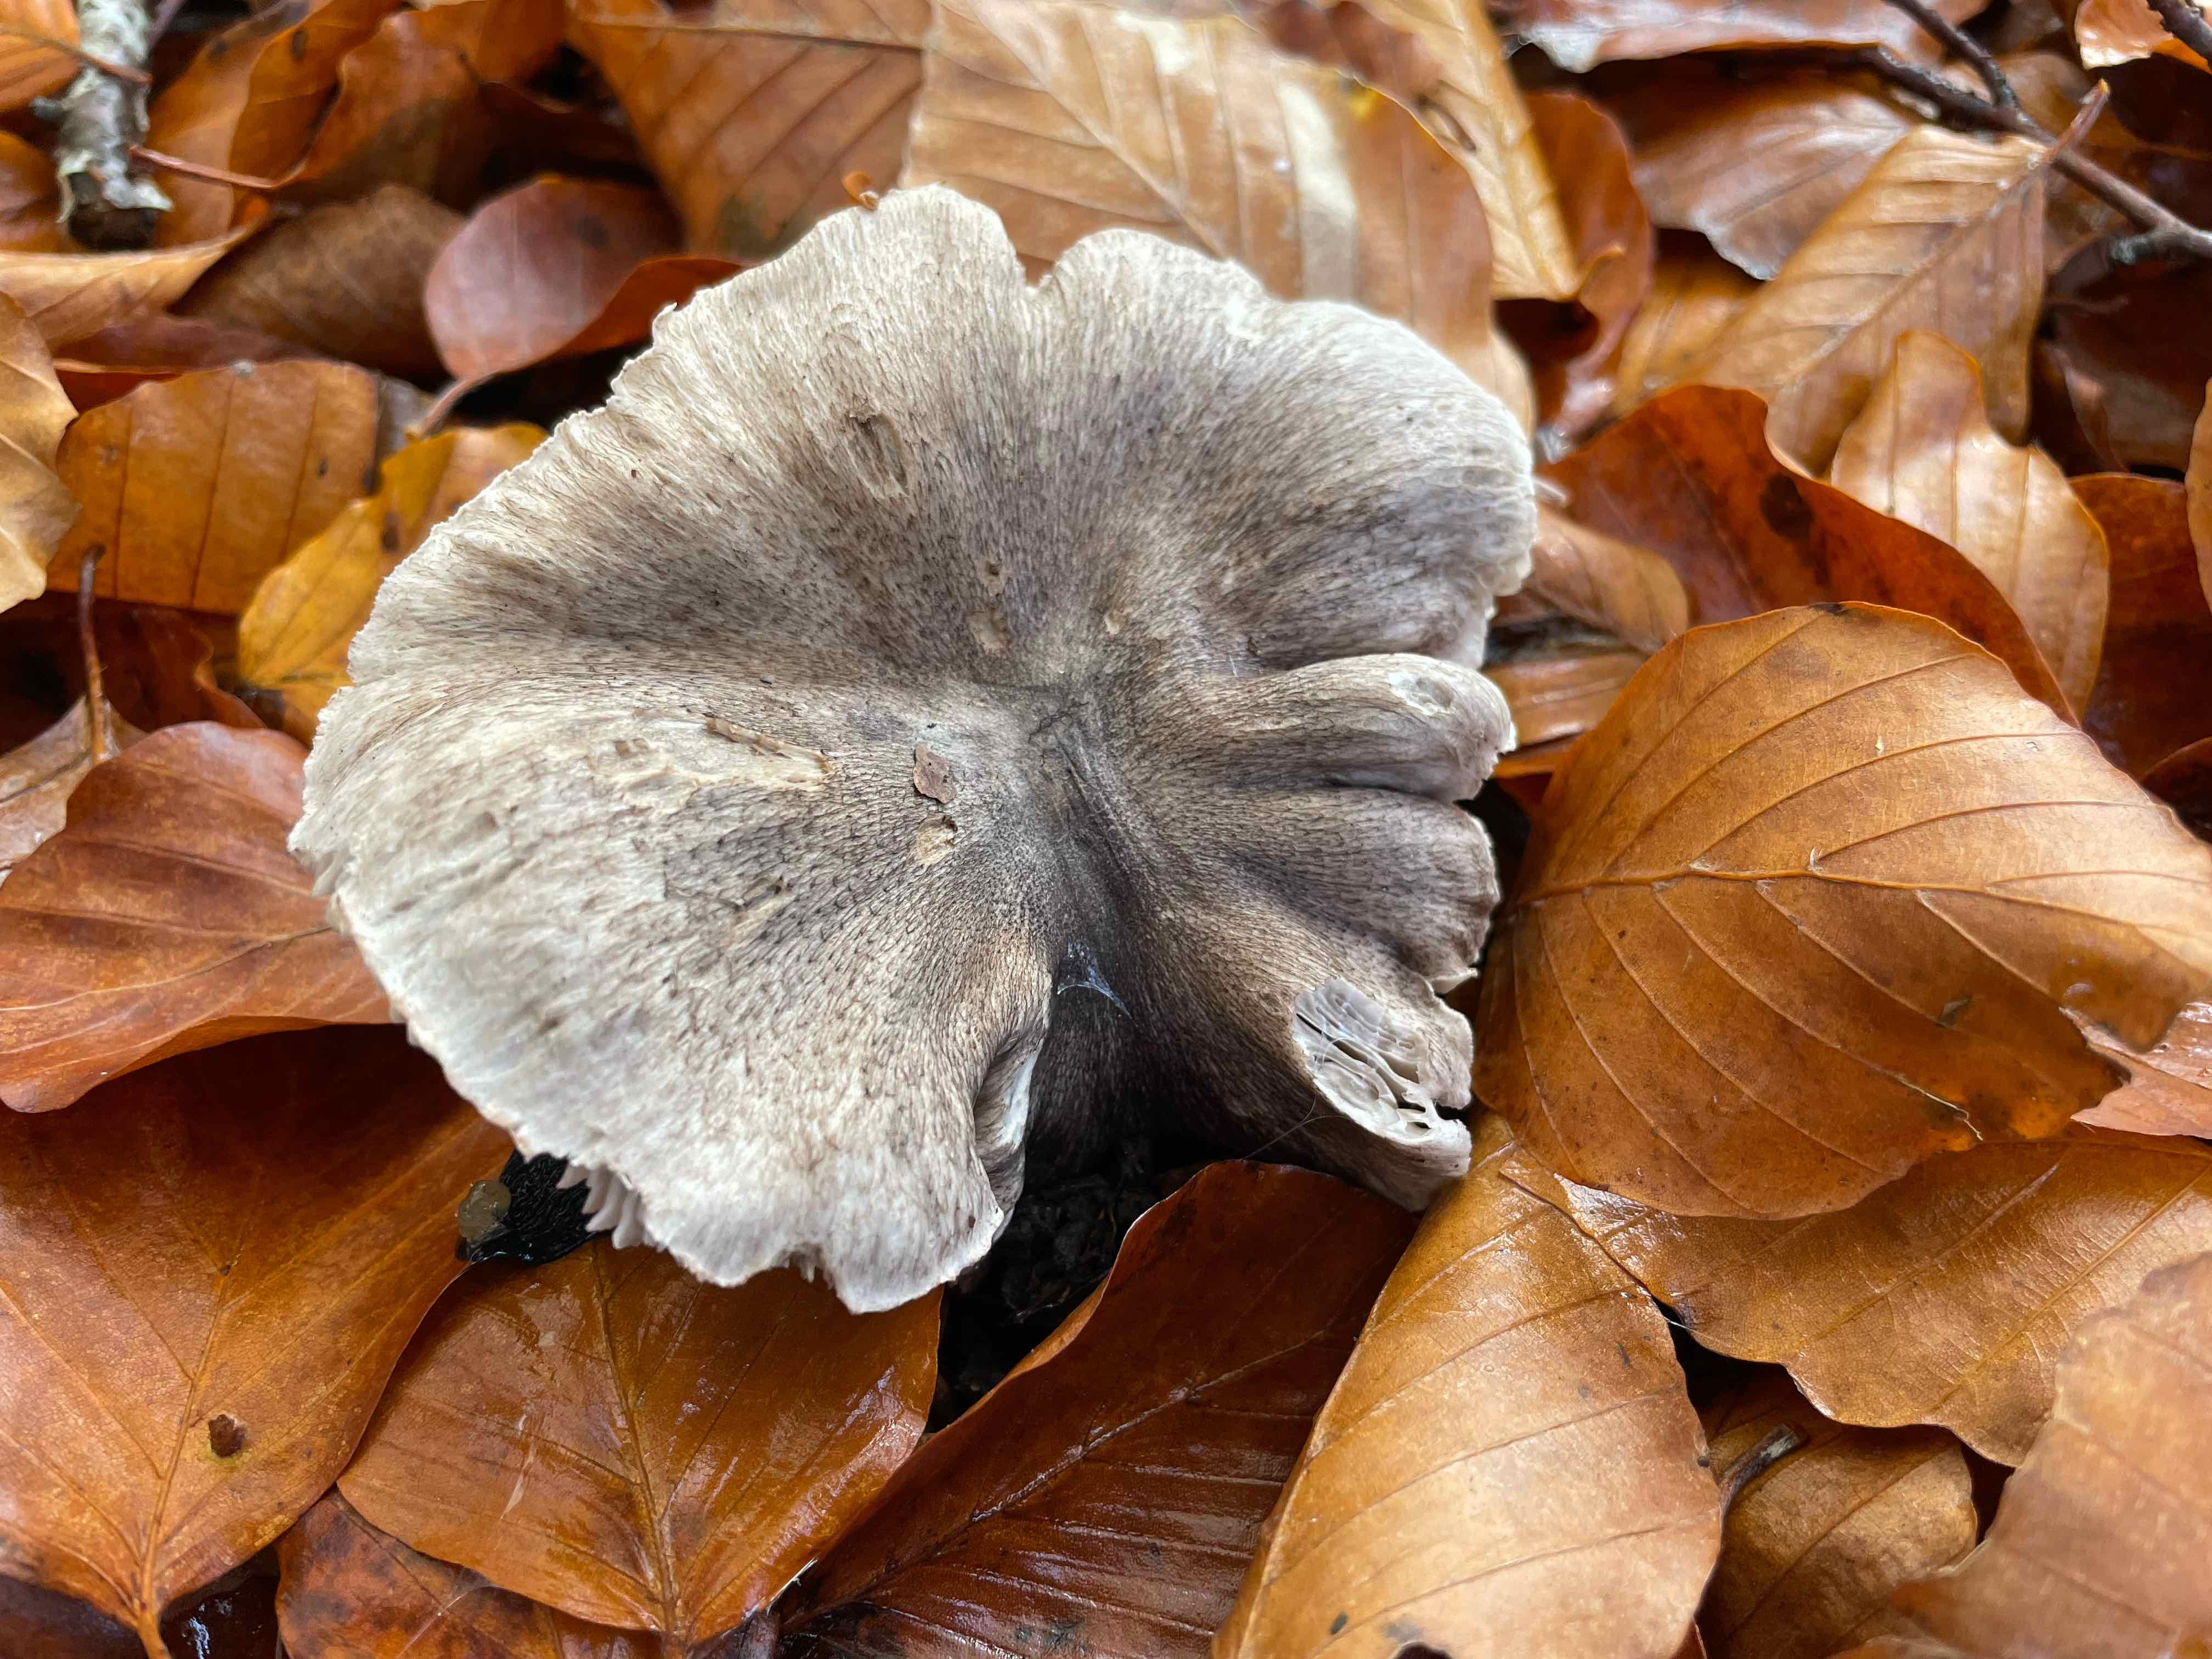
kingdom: Fungi
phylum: Basidiomycota
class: Agaricomycetes
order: Agaricales
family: Tricholomataceae
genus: Tricholoma
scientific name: Tricholoma sciodes
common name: stribet ridderhat
